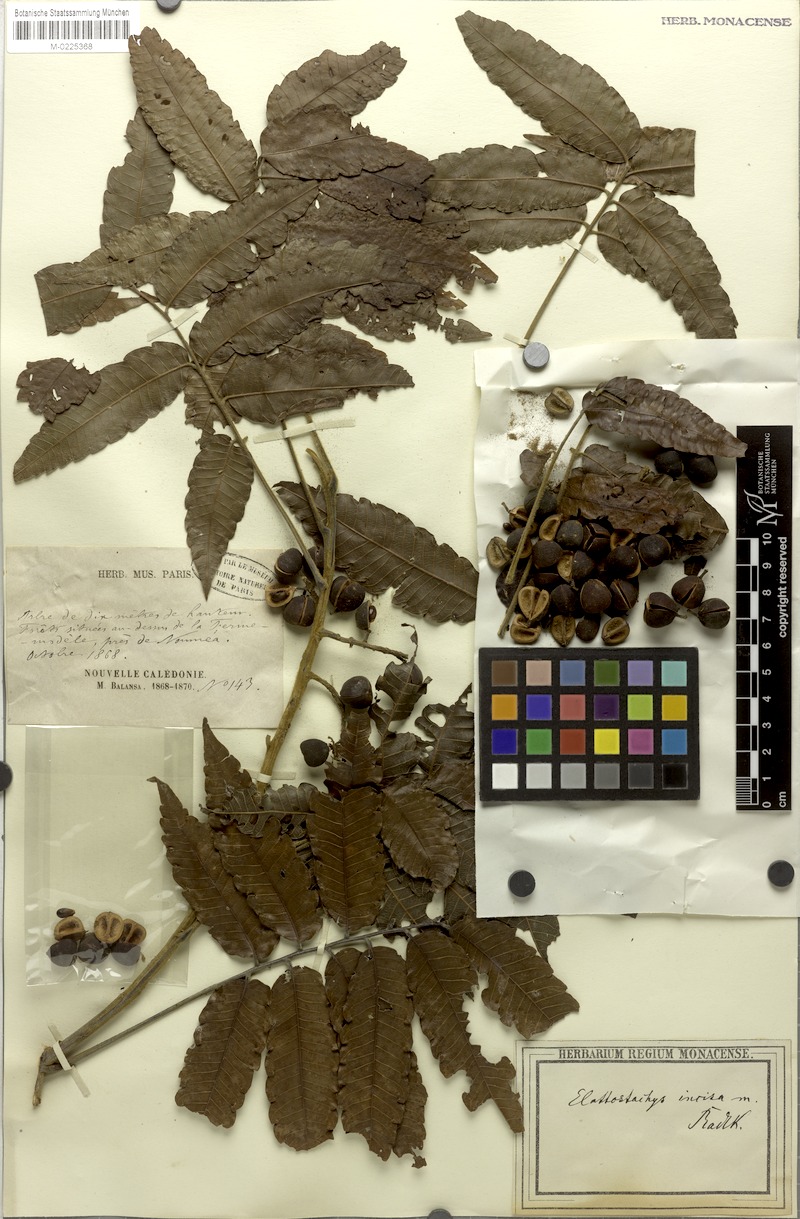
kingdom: Plantae
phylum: Tracheophyta
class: Magnoliopsida
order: Sapindales
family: Sapindaceae
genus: Elattostachys
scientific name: Elattostachys incisa
